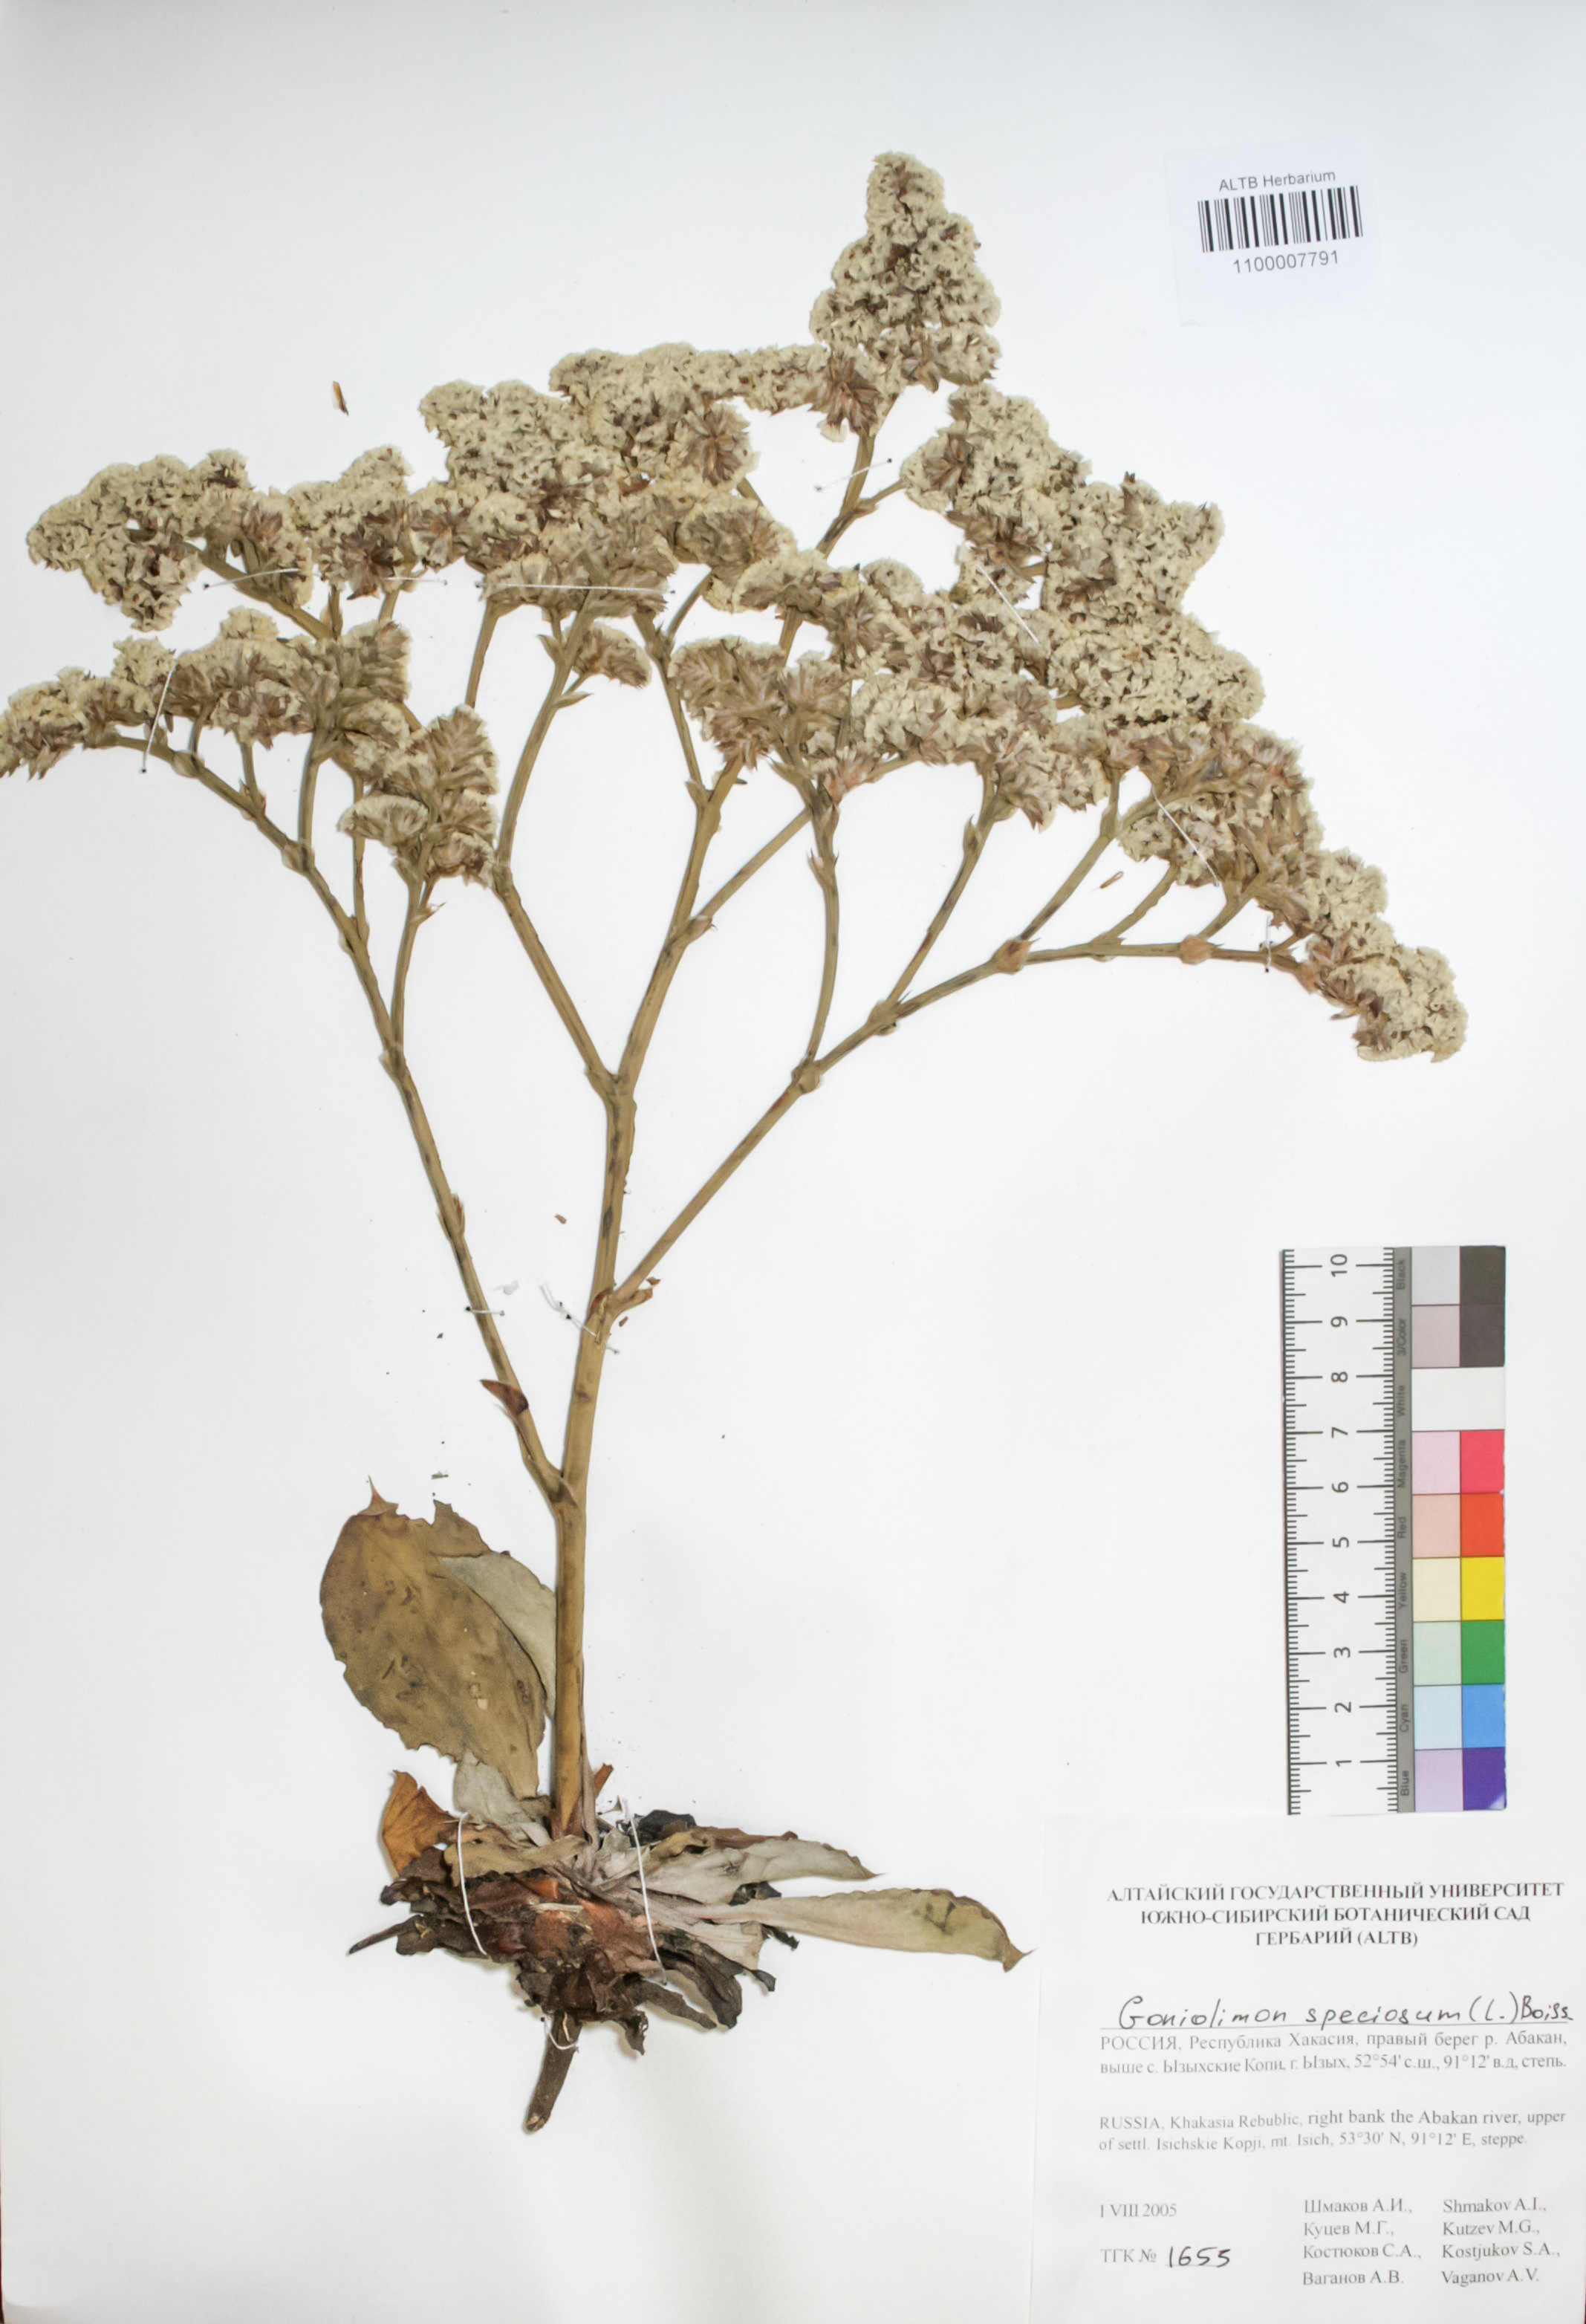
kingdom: Plantae
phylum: Tracheophyta
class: Magnoliopsida
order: Caryophyllales
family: Plumbaginaceae
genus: Goniolimon
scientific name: Goniolimon speciosum
